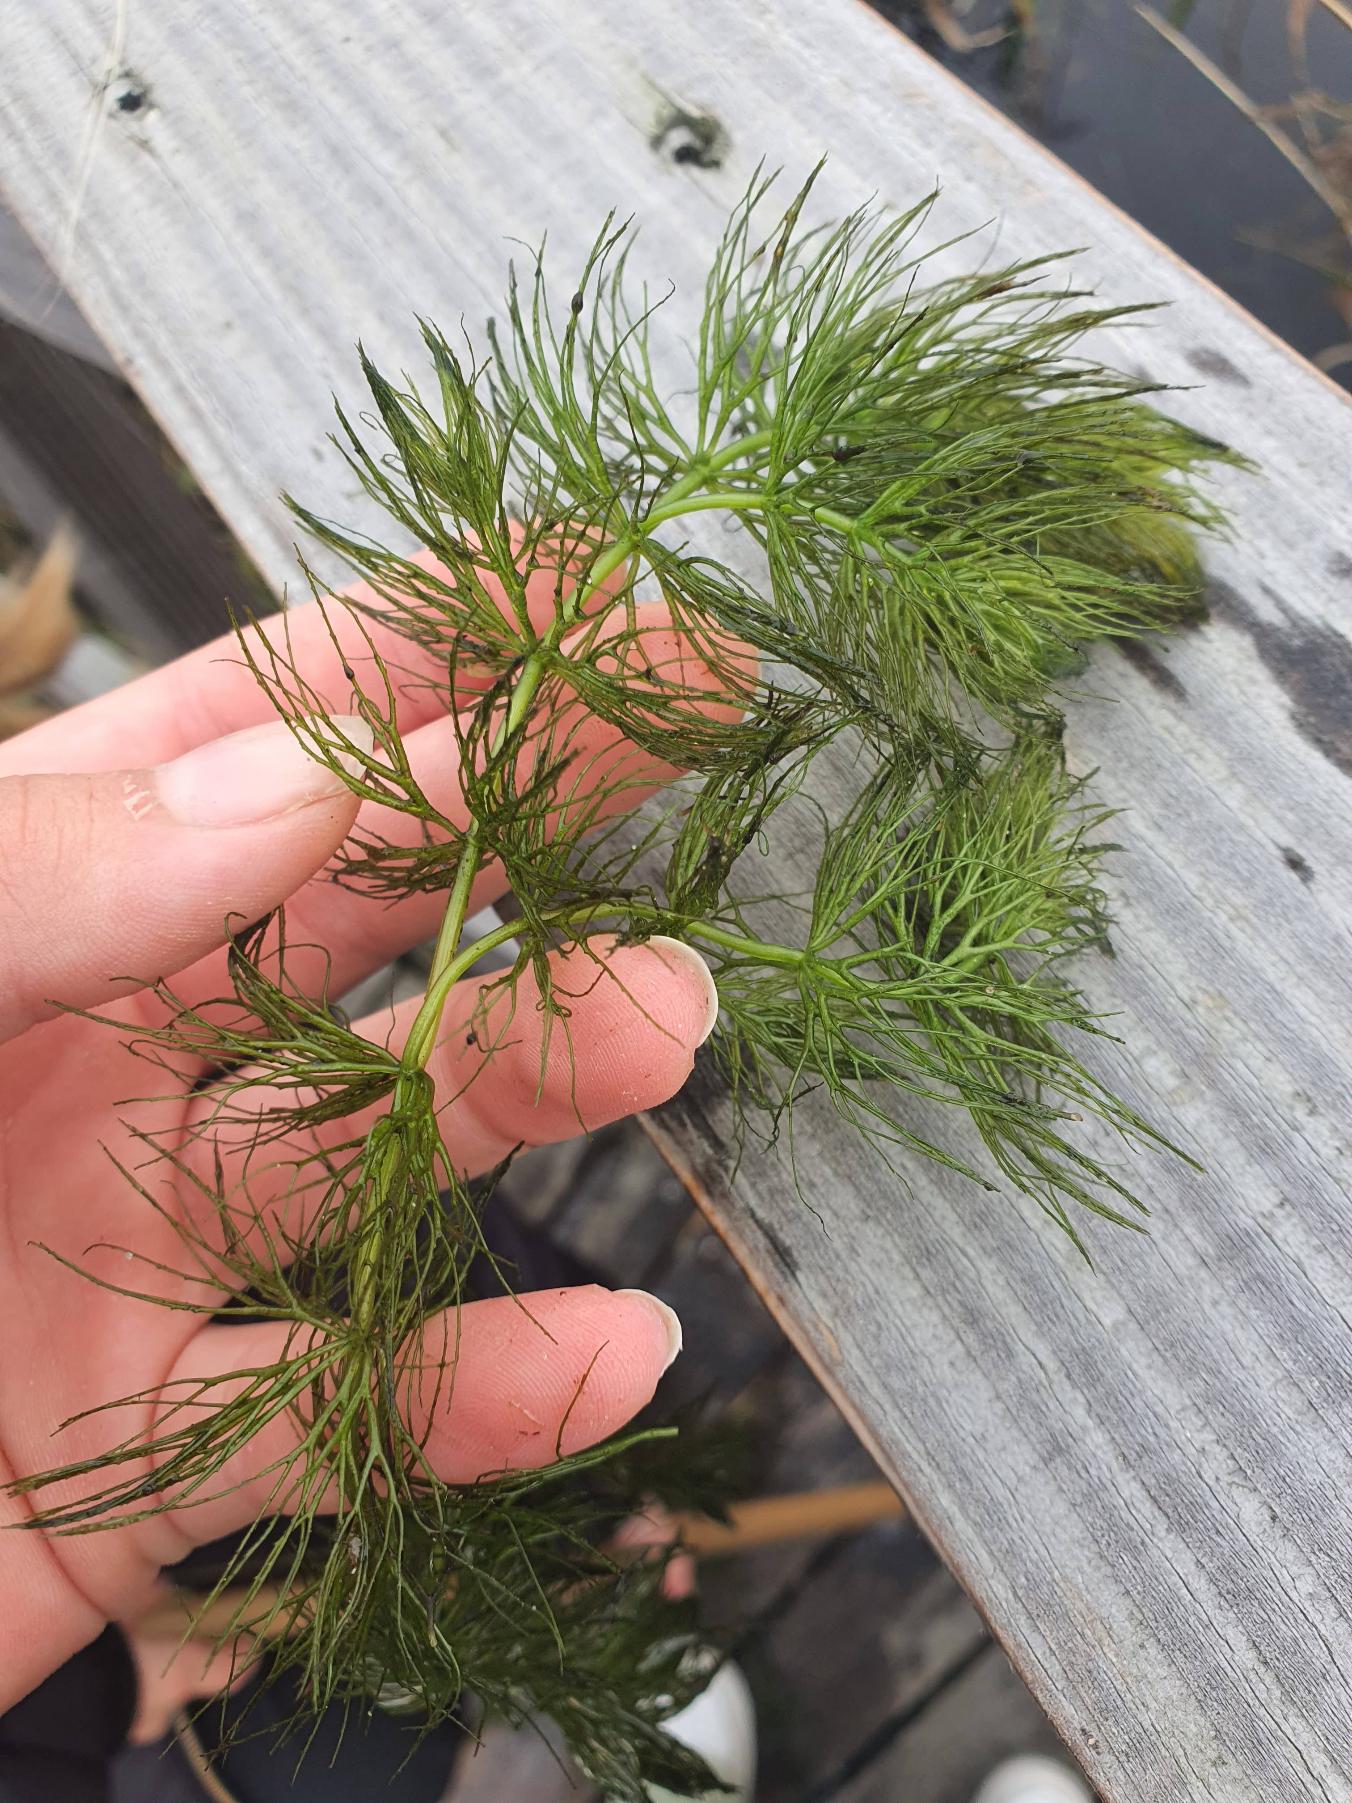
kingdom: Plantae
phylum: Tracheophyta
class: Magnoliopsida
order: Ceratophyllales
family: Ceratophyllaceae
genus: Ceratophyllum
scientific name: Ceratophyllum submersum
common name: Tornløs hornblad
